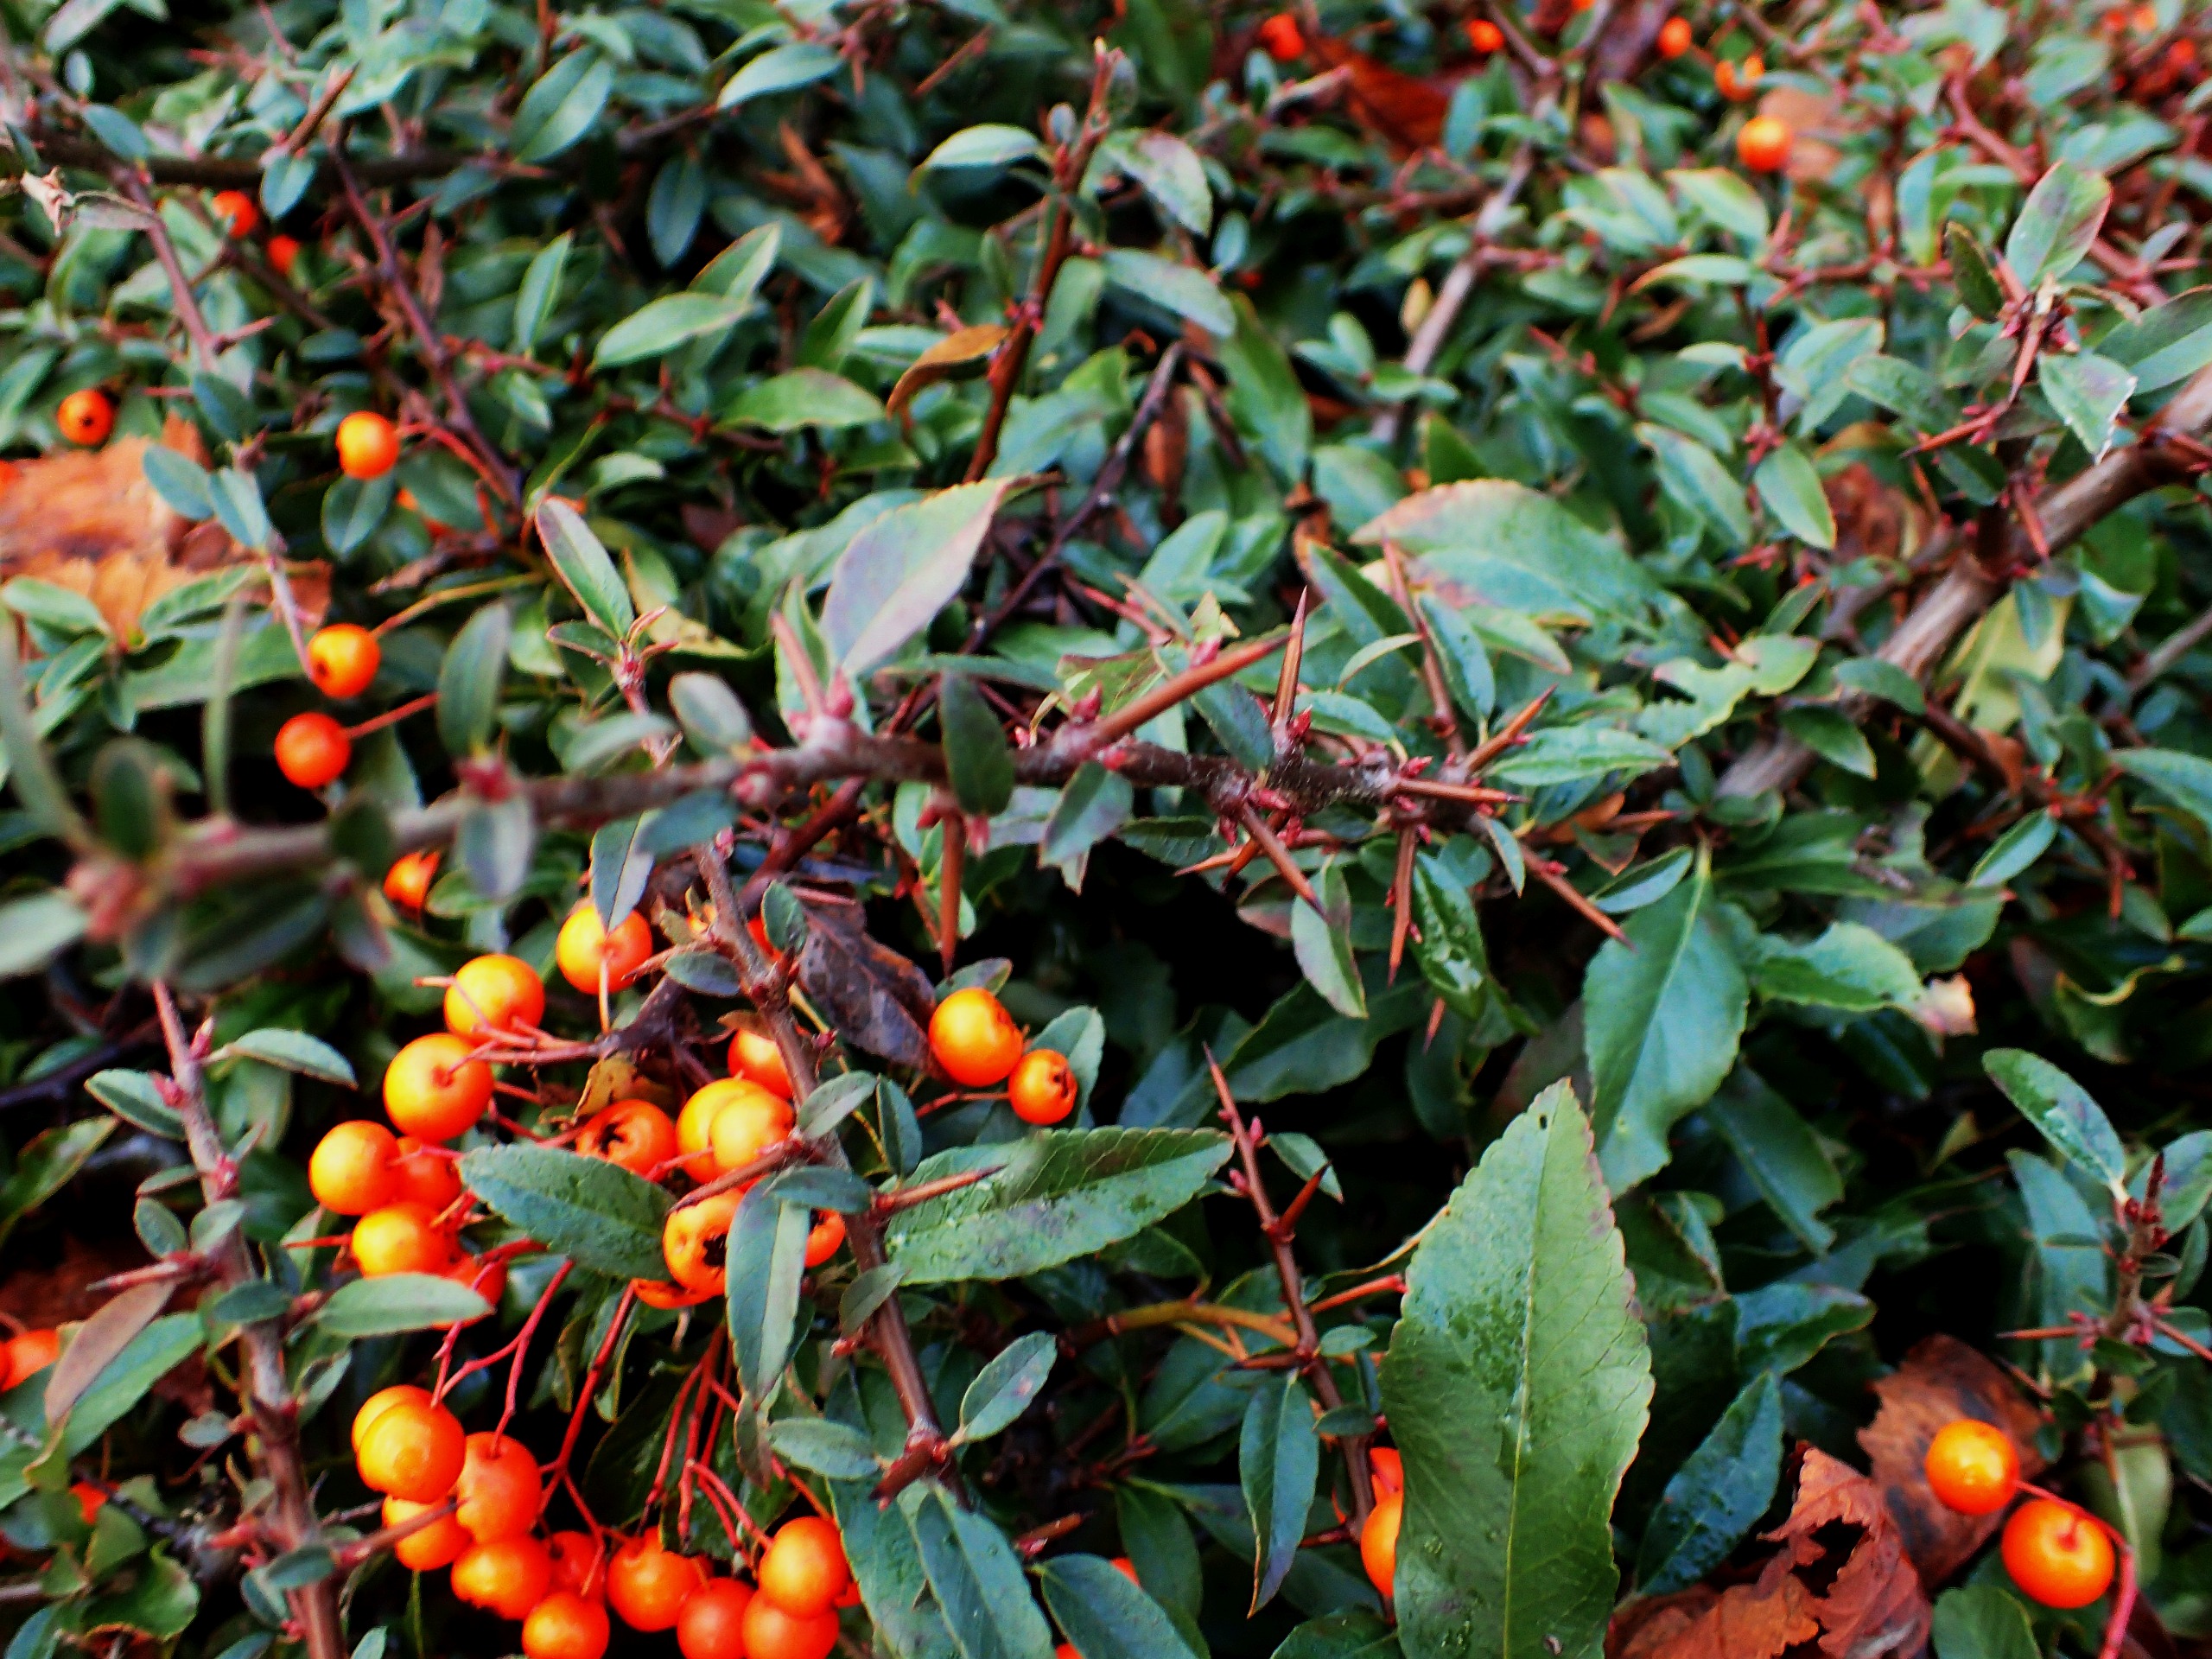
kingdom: Plantae
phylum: Tracheophyta
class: Magnoliopsida
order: Rosales
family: Rosaceae
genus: Pyracantha
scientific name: Pyracantha crenulata
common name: Orangegul ildtorn
